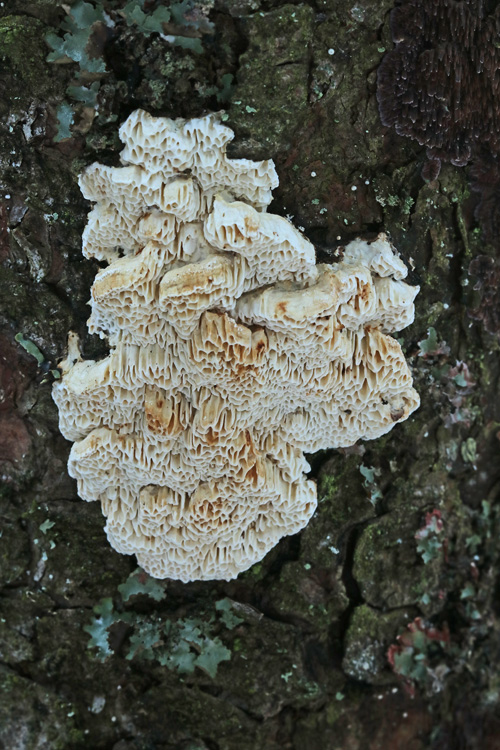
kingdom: Fungi
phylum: Basidiomycota
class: Agaricomycetes
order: Polyporales
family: Fomitopsidaceae
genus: Fomitopsis
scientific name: Fomitopsis
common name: fyrre-skiveporesvamp
